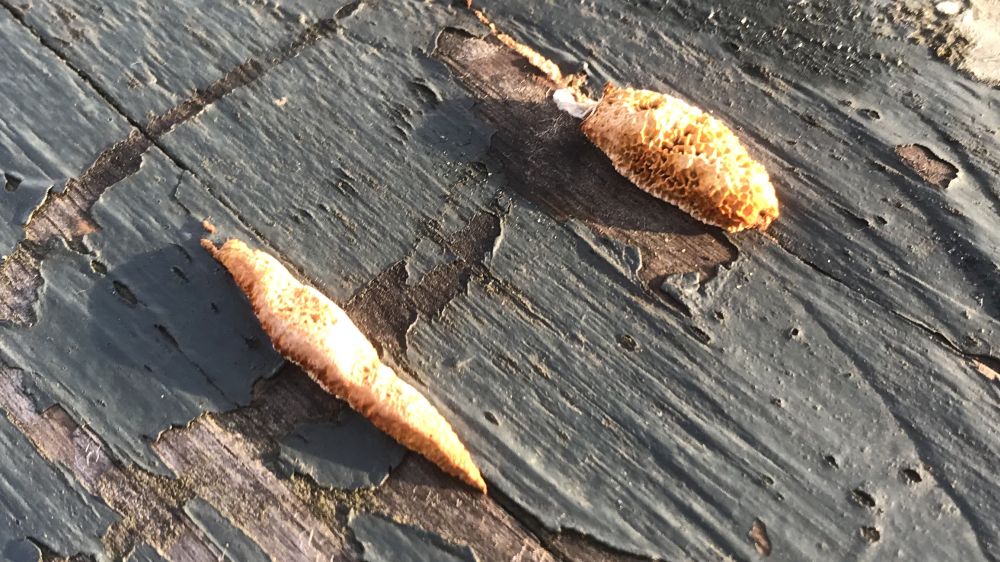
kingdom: Fungi
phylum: Basidiomycota
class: Agaricomycetes
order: Hymenochaetales
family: Hymenochaetaceae
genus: Fuscoporia
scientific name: Fuscoporia ferrea
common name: skorpe-ildporesvamp
